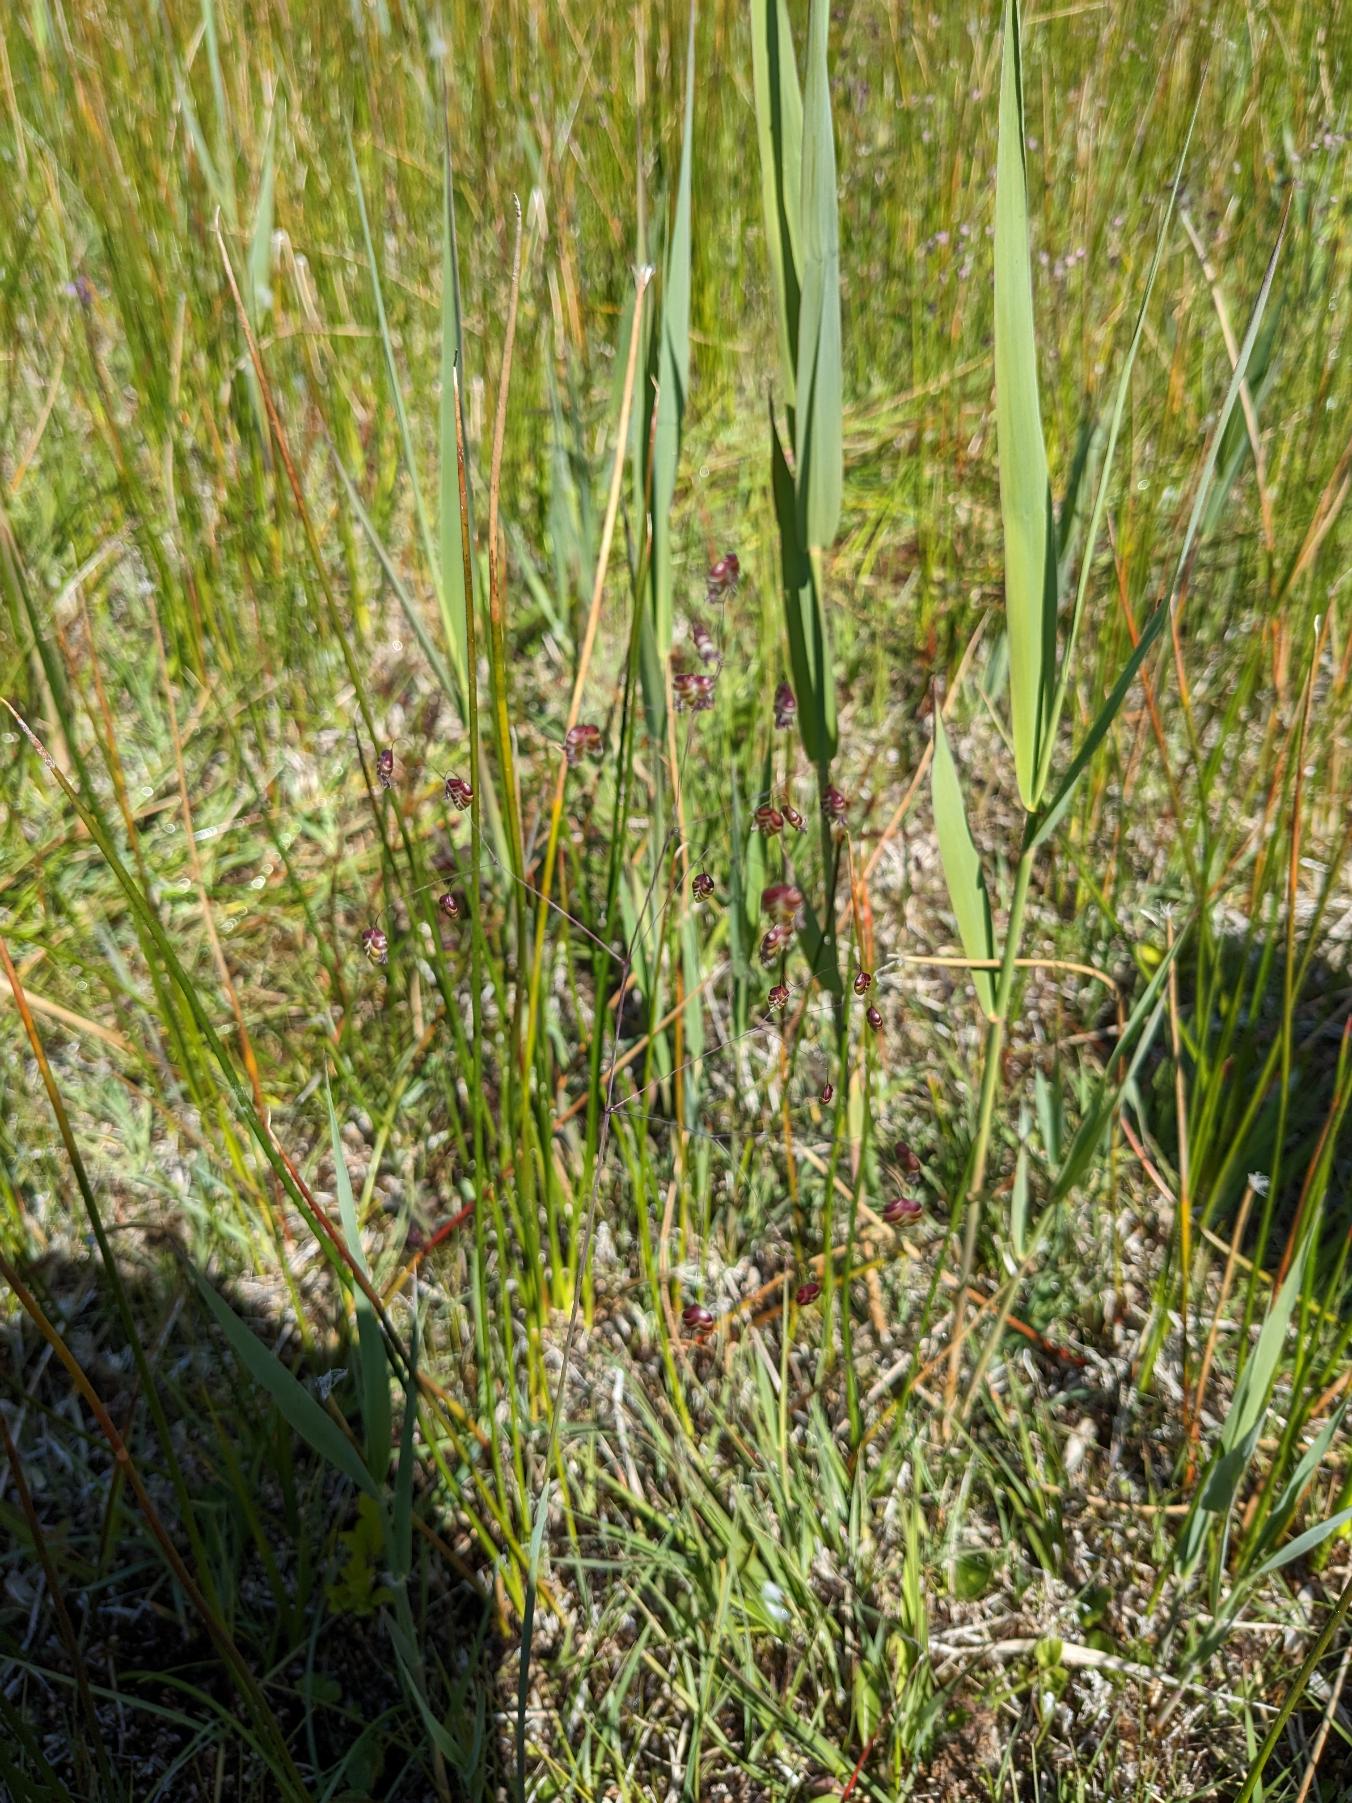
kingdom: Plantae
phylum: Tracheophyta
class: Liliopsida
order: Poales
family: Poaceae
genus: Briza
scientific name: Briza media
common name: Hjertegræs
